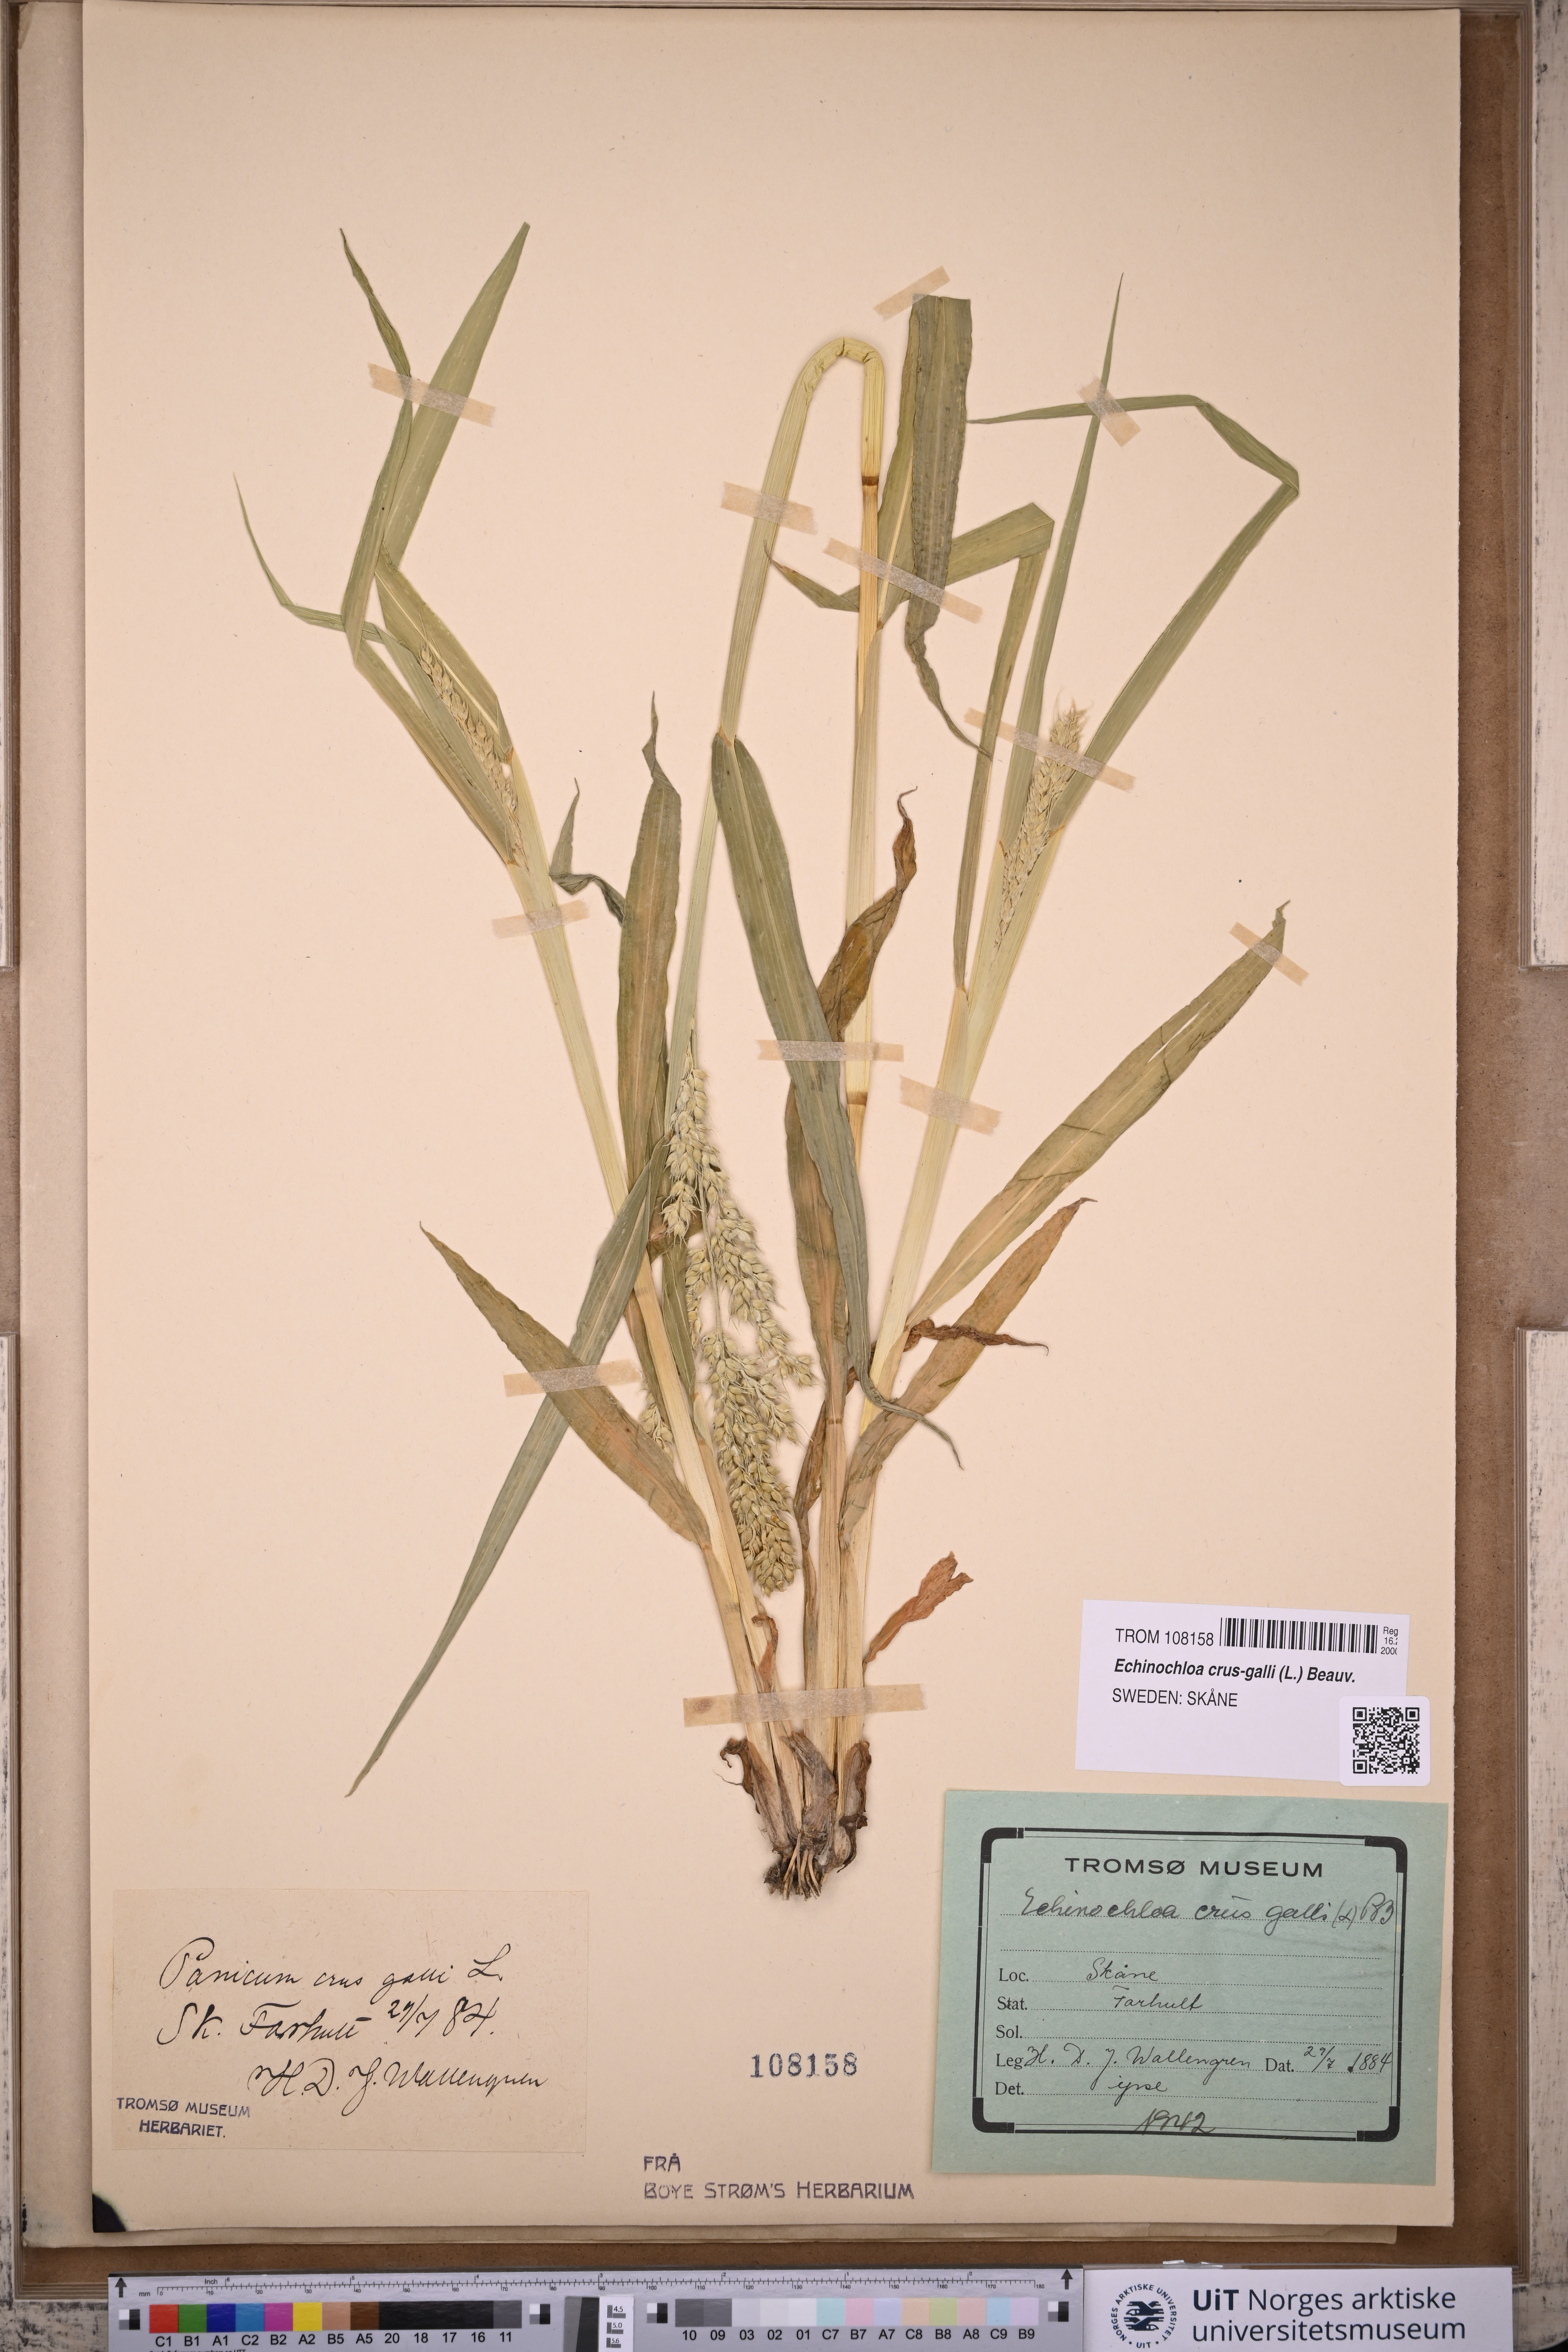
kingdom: Plantae
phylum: Tracheophyta
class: Liliopsida
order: Poales
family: Poaceae
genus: Echinochloa
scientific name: Echinochloa crus-galli
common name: Cockspur
